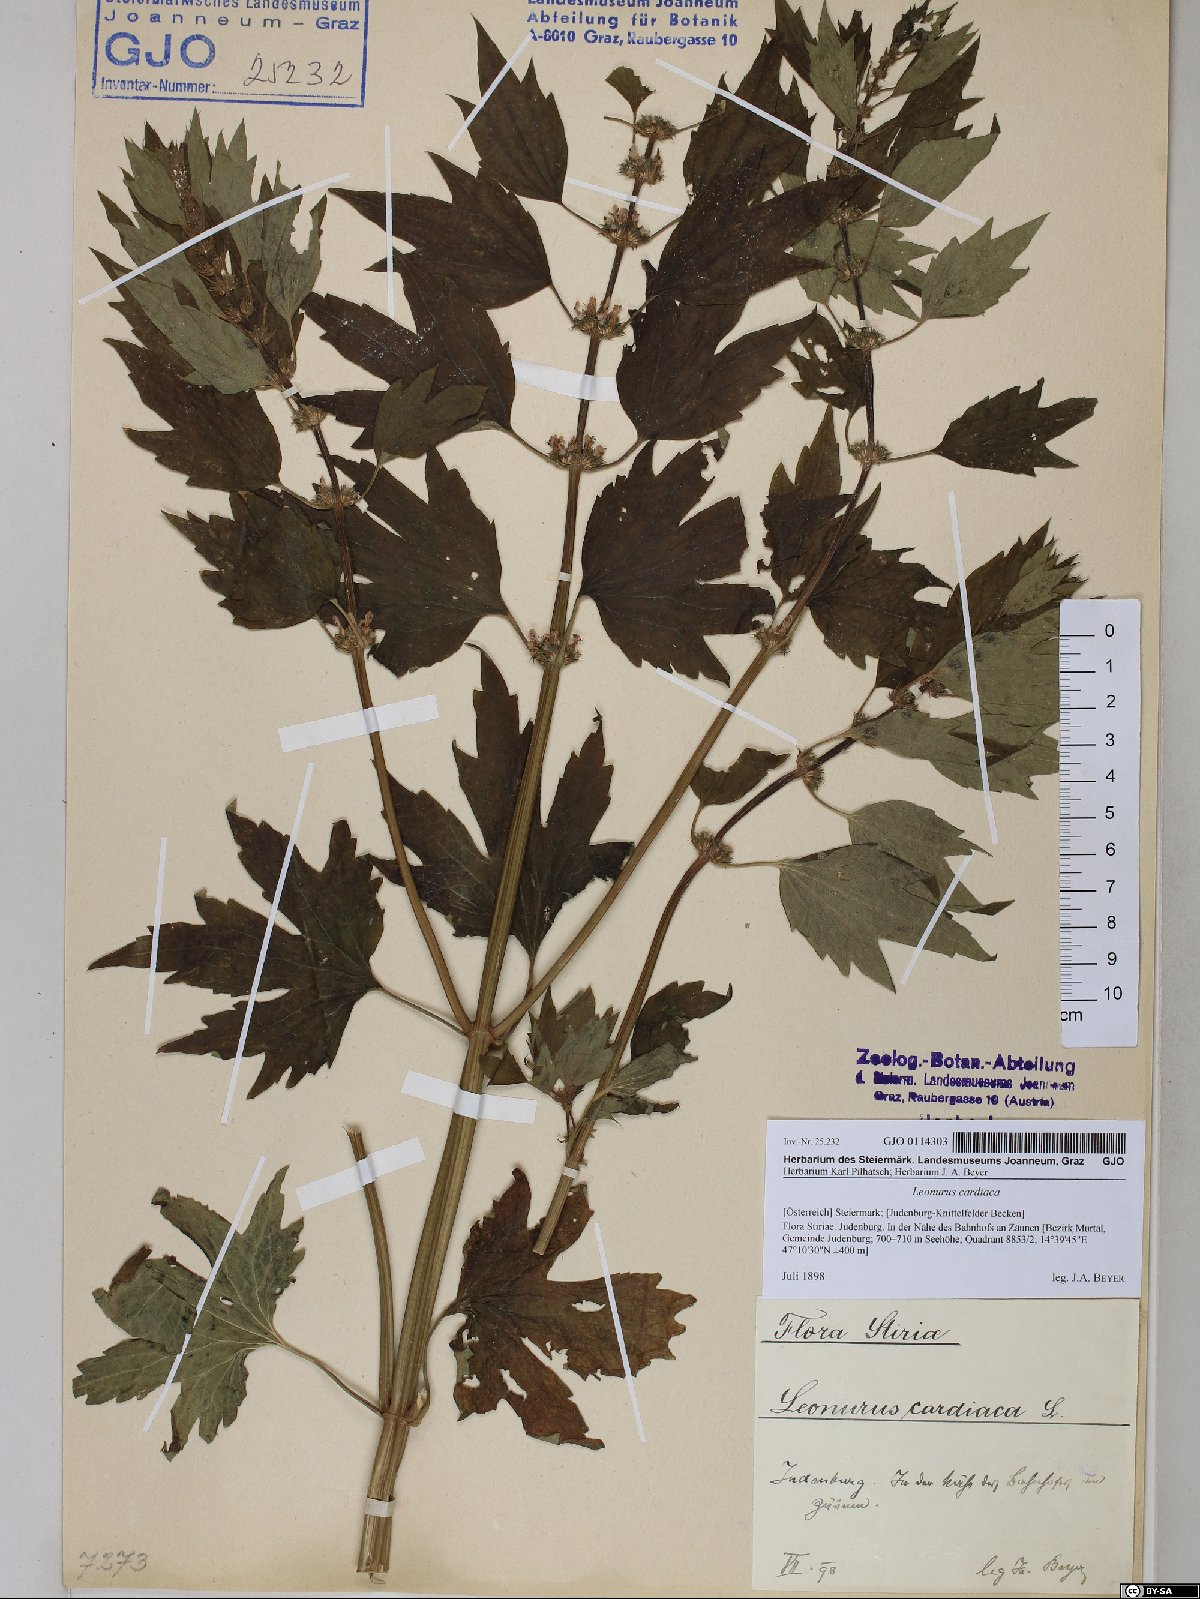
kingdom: Plantae
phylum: Tracheophyta
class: Magnoliopsida
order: Lamiales
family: Lamiaceae
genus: Leonurus
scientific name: Leonurus cardiaca
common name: Motherwort
